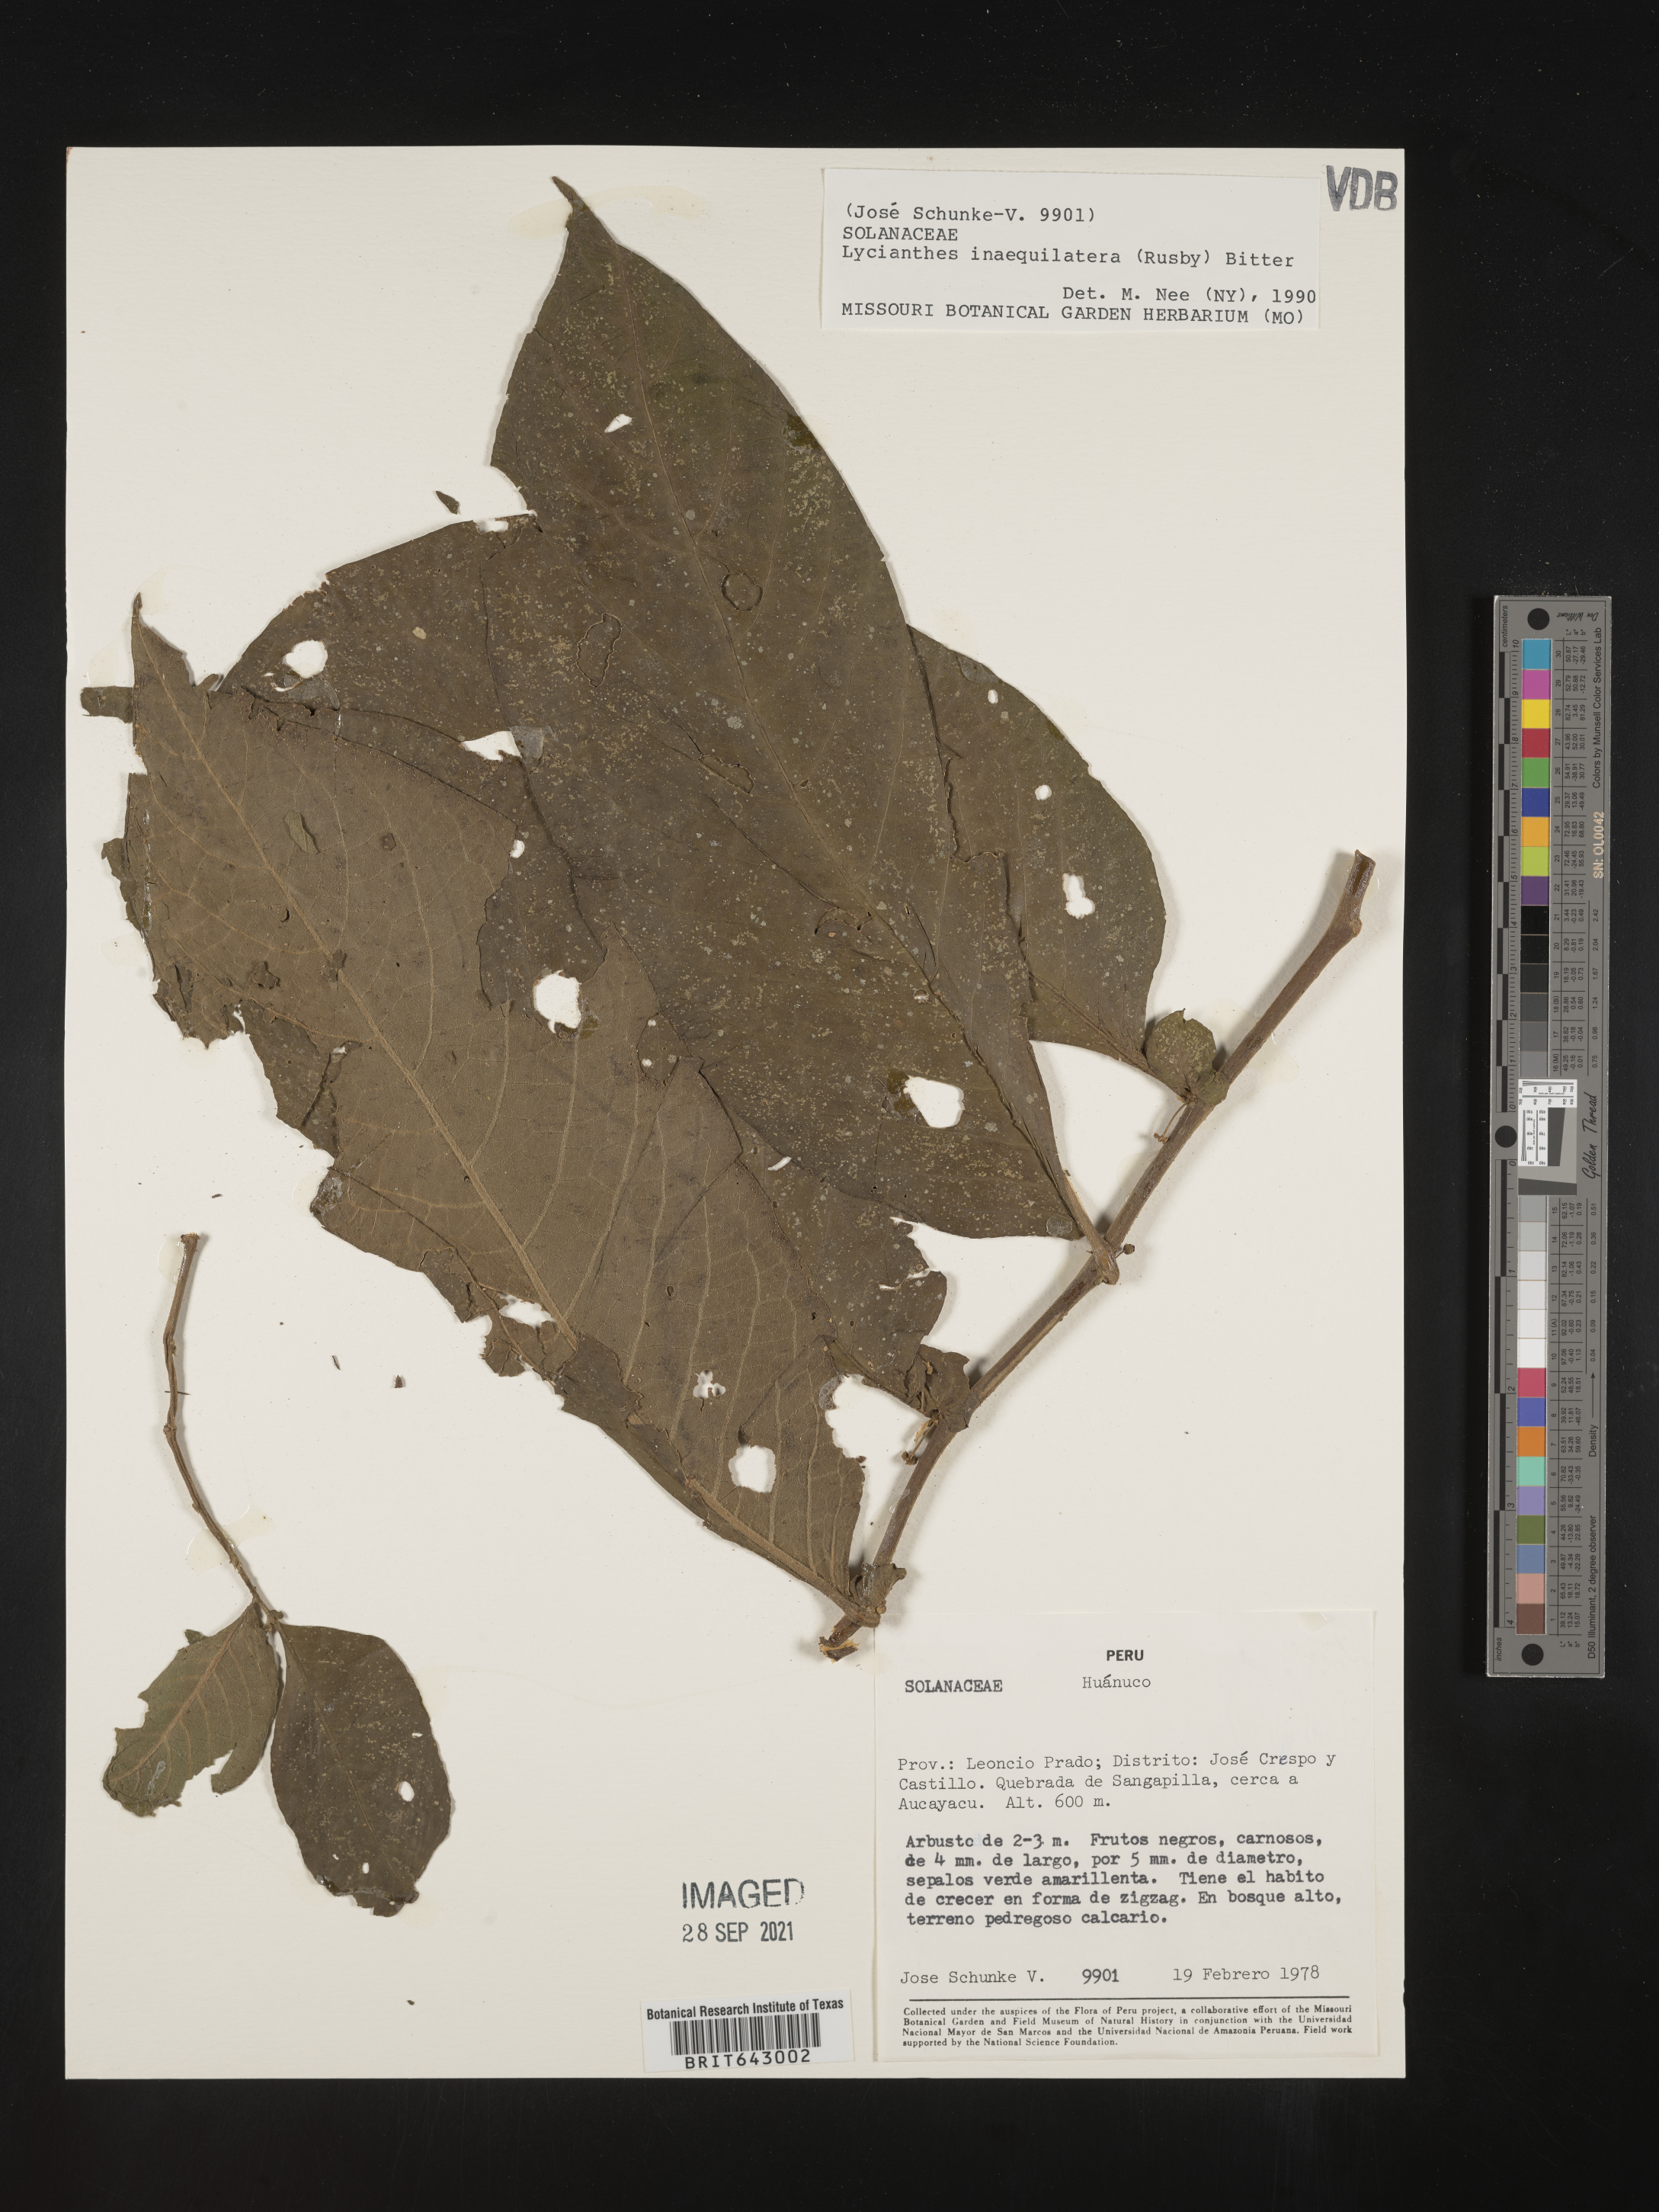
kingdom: Plantae
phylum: Tracheophyta
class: Magnoliopsida
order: Solanales
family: Solanaceae
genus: Lycianthes
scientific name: Lycianthes
